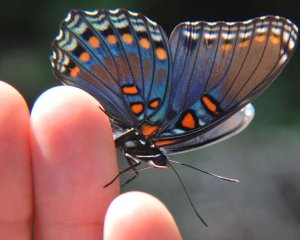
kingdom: Animalia
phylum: Arthropoda
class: Insecta
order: Lepidoptera
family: Nymphalidae
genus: Limenitis
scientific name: Limenitis astyanax
